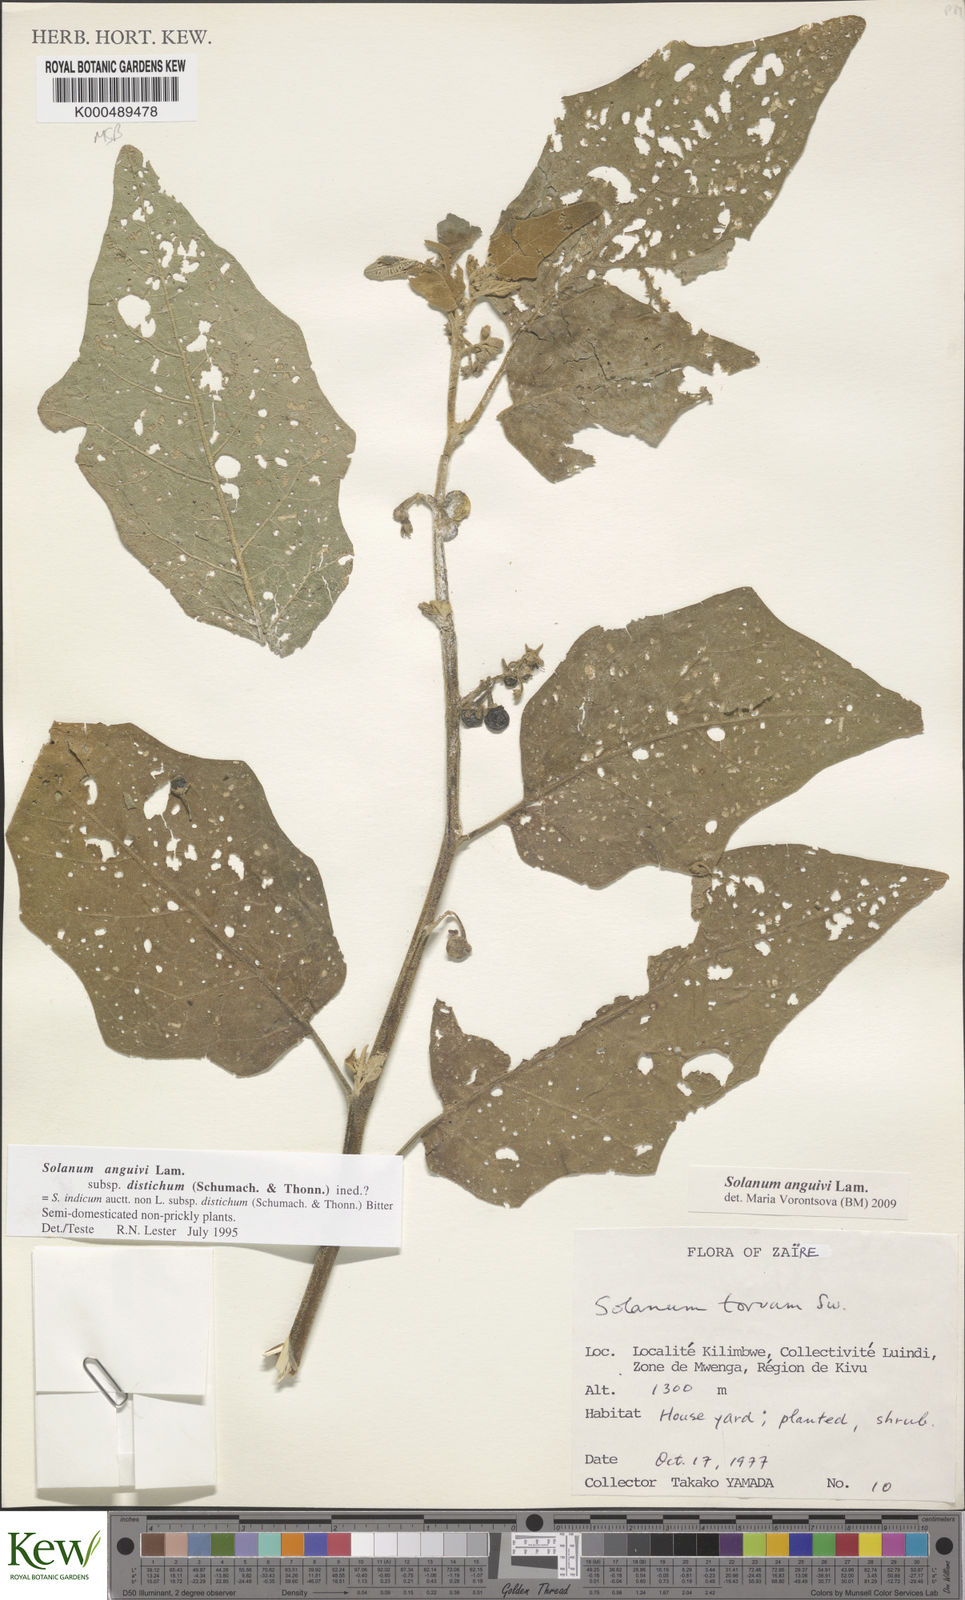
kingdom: Plantae
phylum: Tracheophyta
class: Magnoliopsida
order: Solanales
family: Solanaceae
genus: Solanum
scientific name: Solanum anguivi
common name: Forest bitterberry
